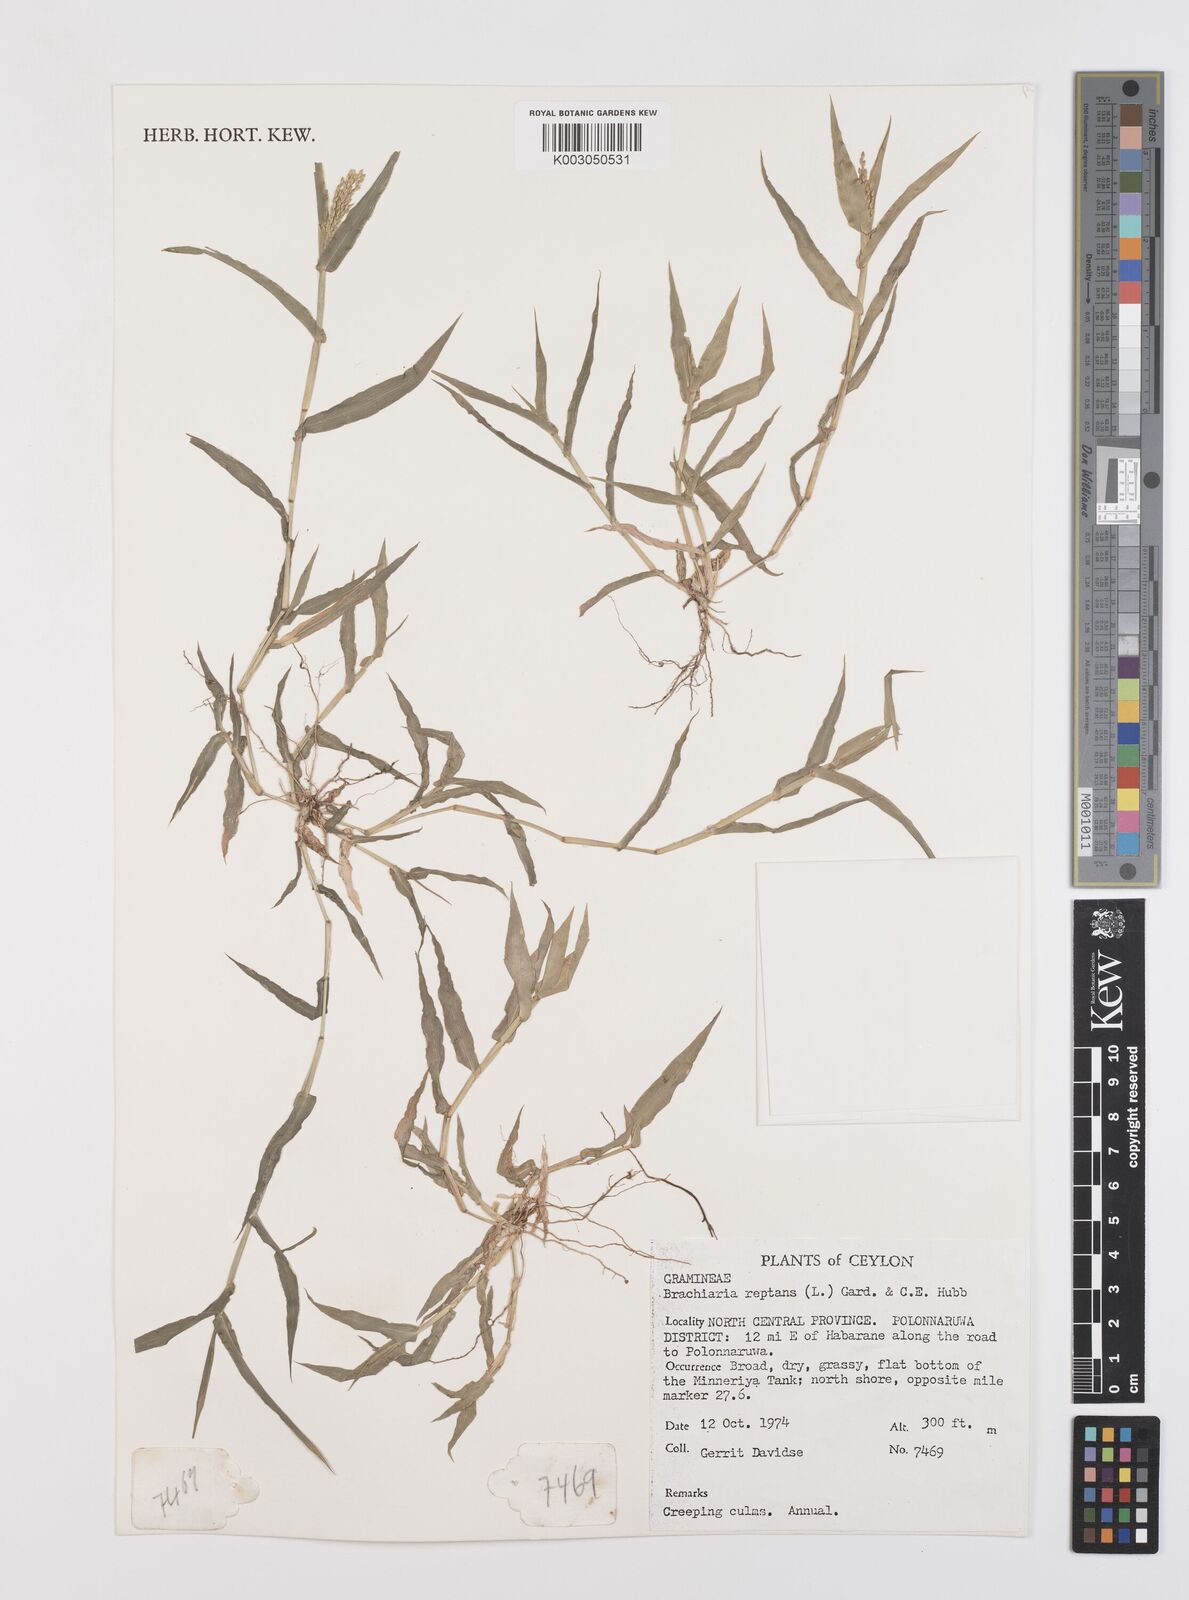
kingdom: Plantae
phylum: Tracheophyta
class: Liliopsida
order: Poales
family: Poaceae
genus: Urochloa
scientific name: Urochloa reptans
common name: Sprawling signalgrass
